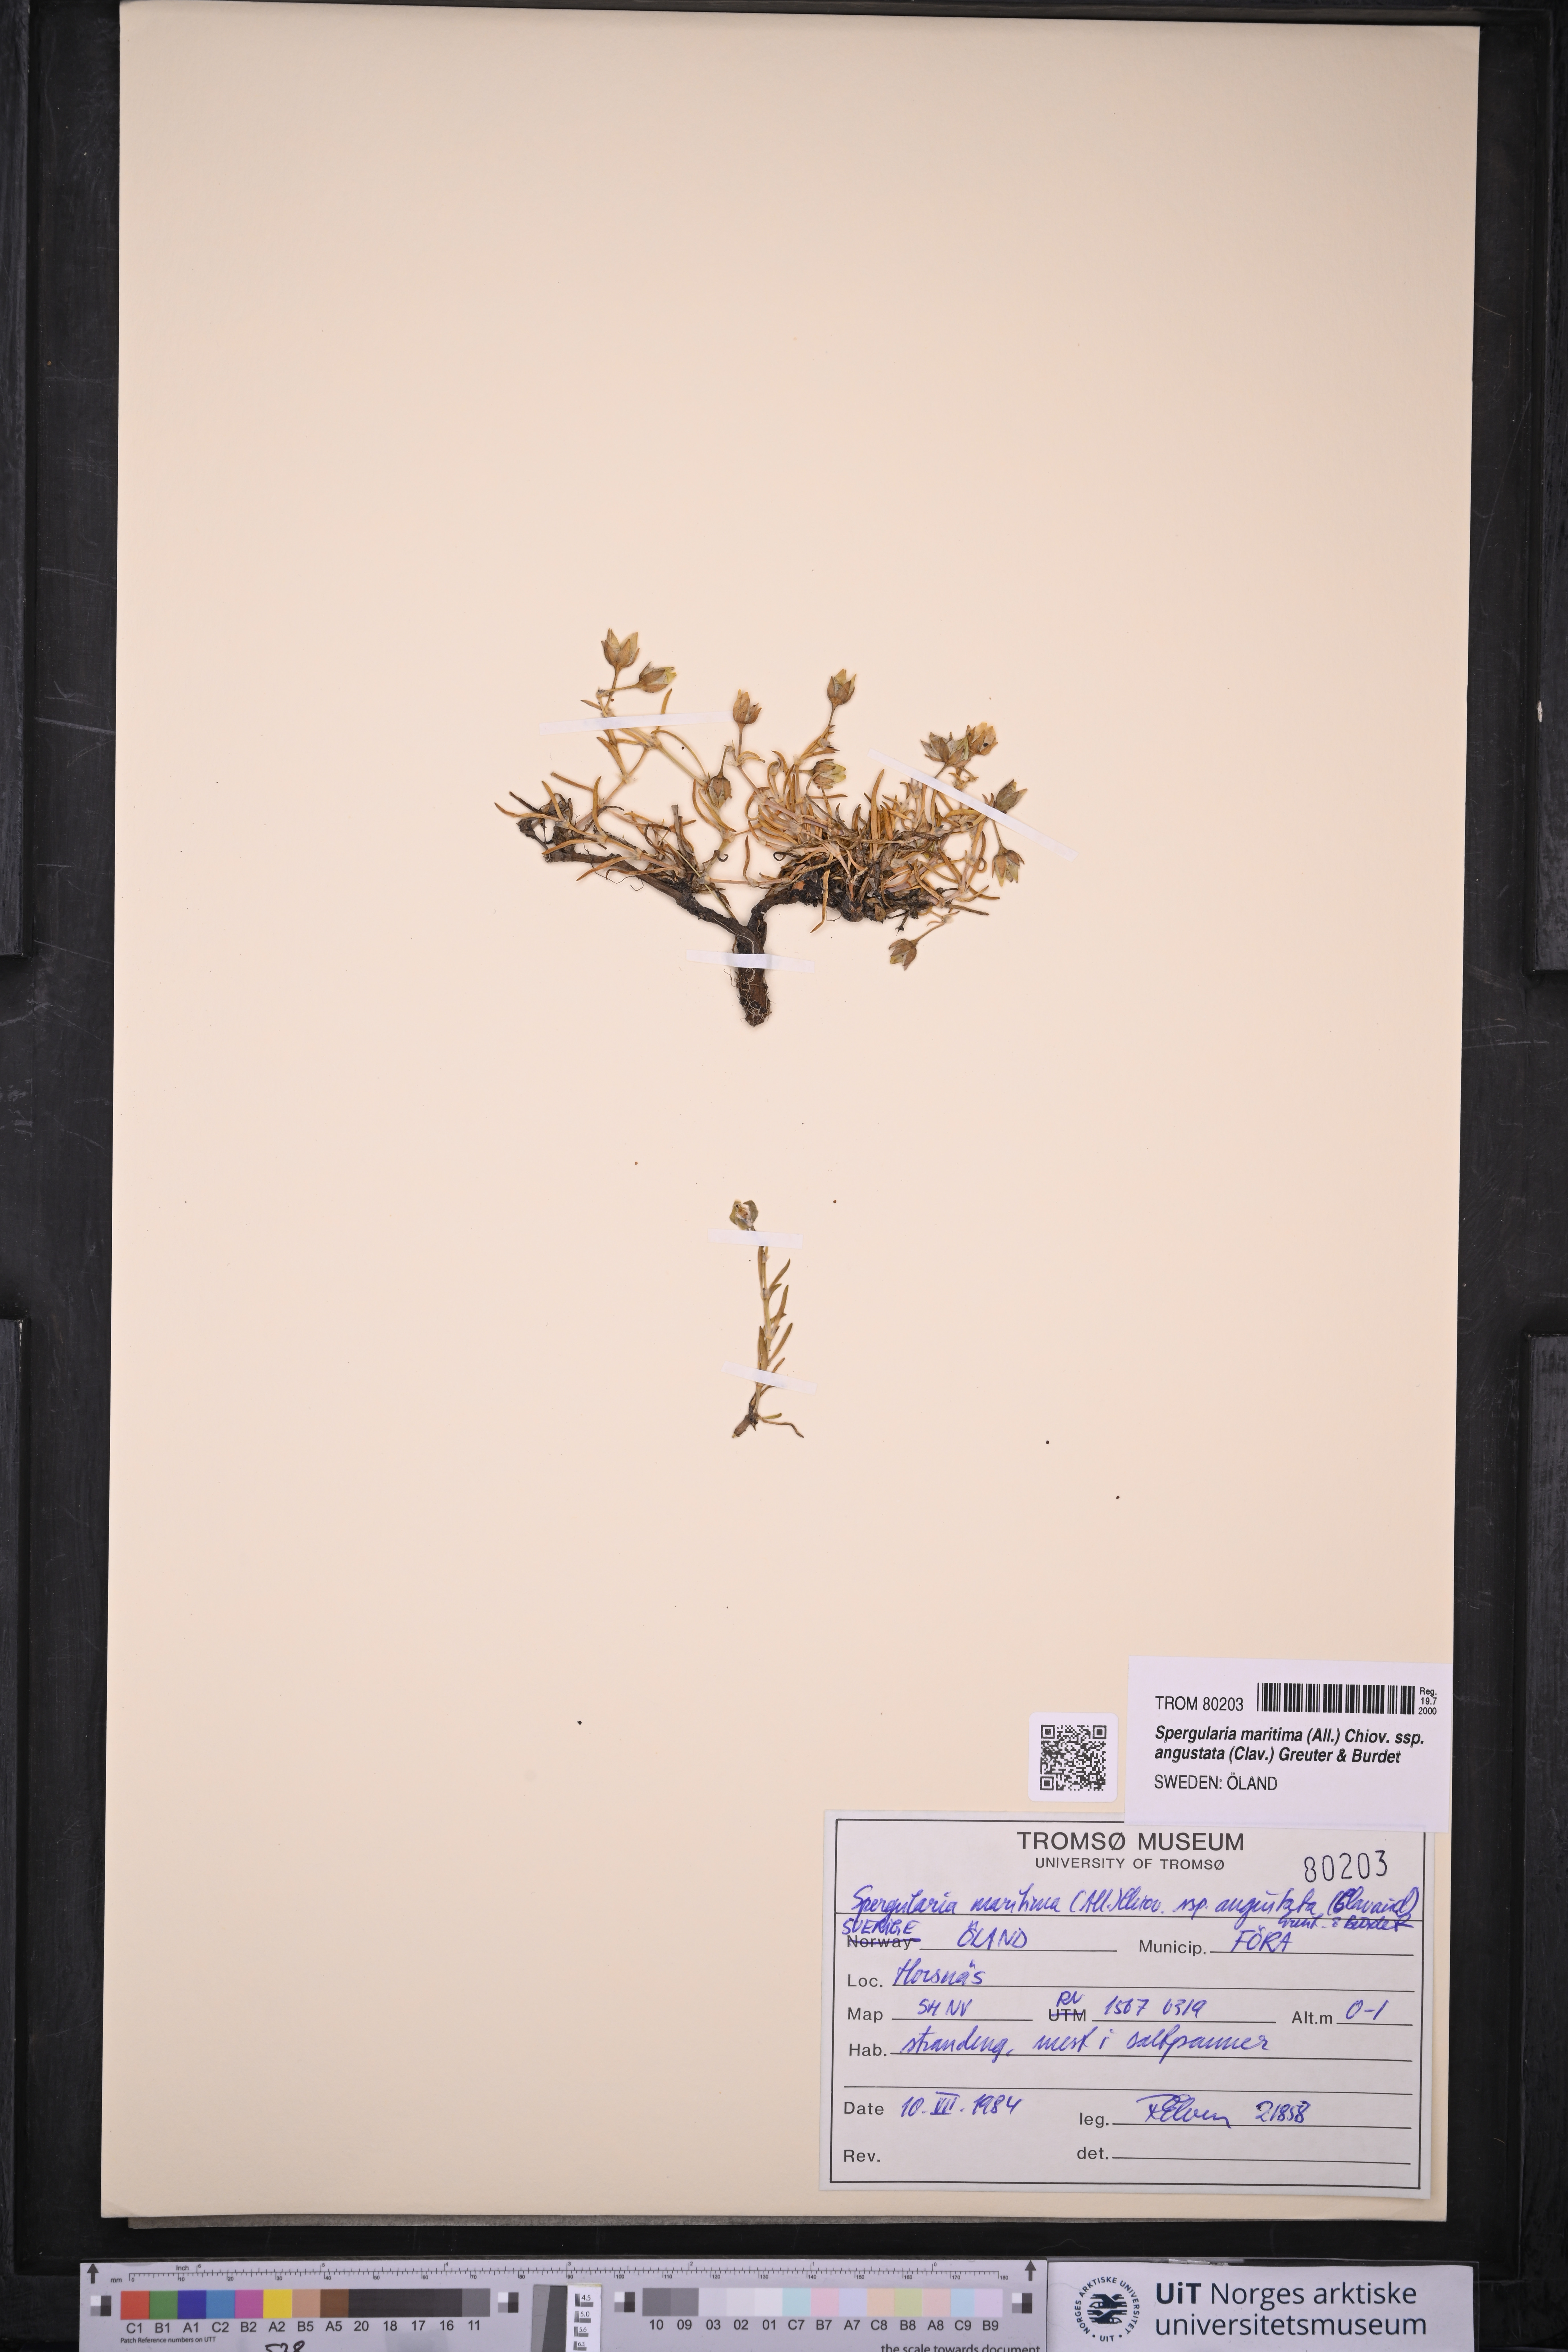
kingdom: Plantae
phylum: Tracheophyta
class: Magnoliopsida
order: Caryophyllales
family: Caryophyllaceae
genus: Spergularia
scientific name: Spergularia media
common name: Greater sea-spurrey
